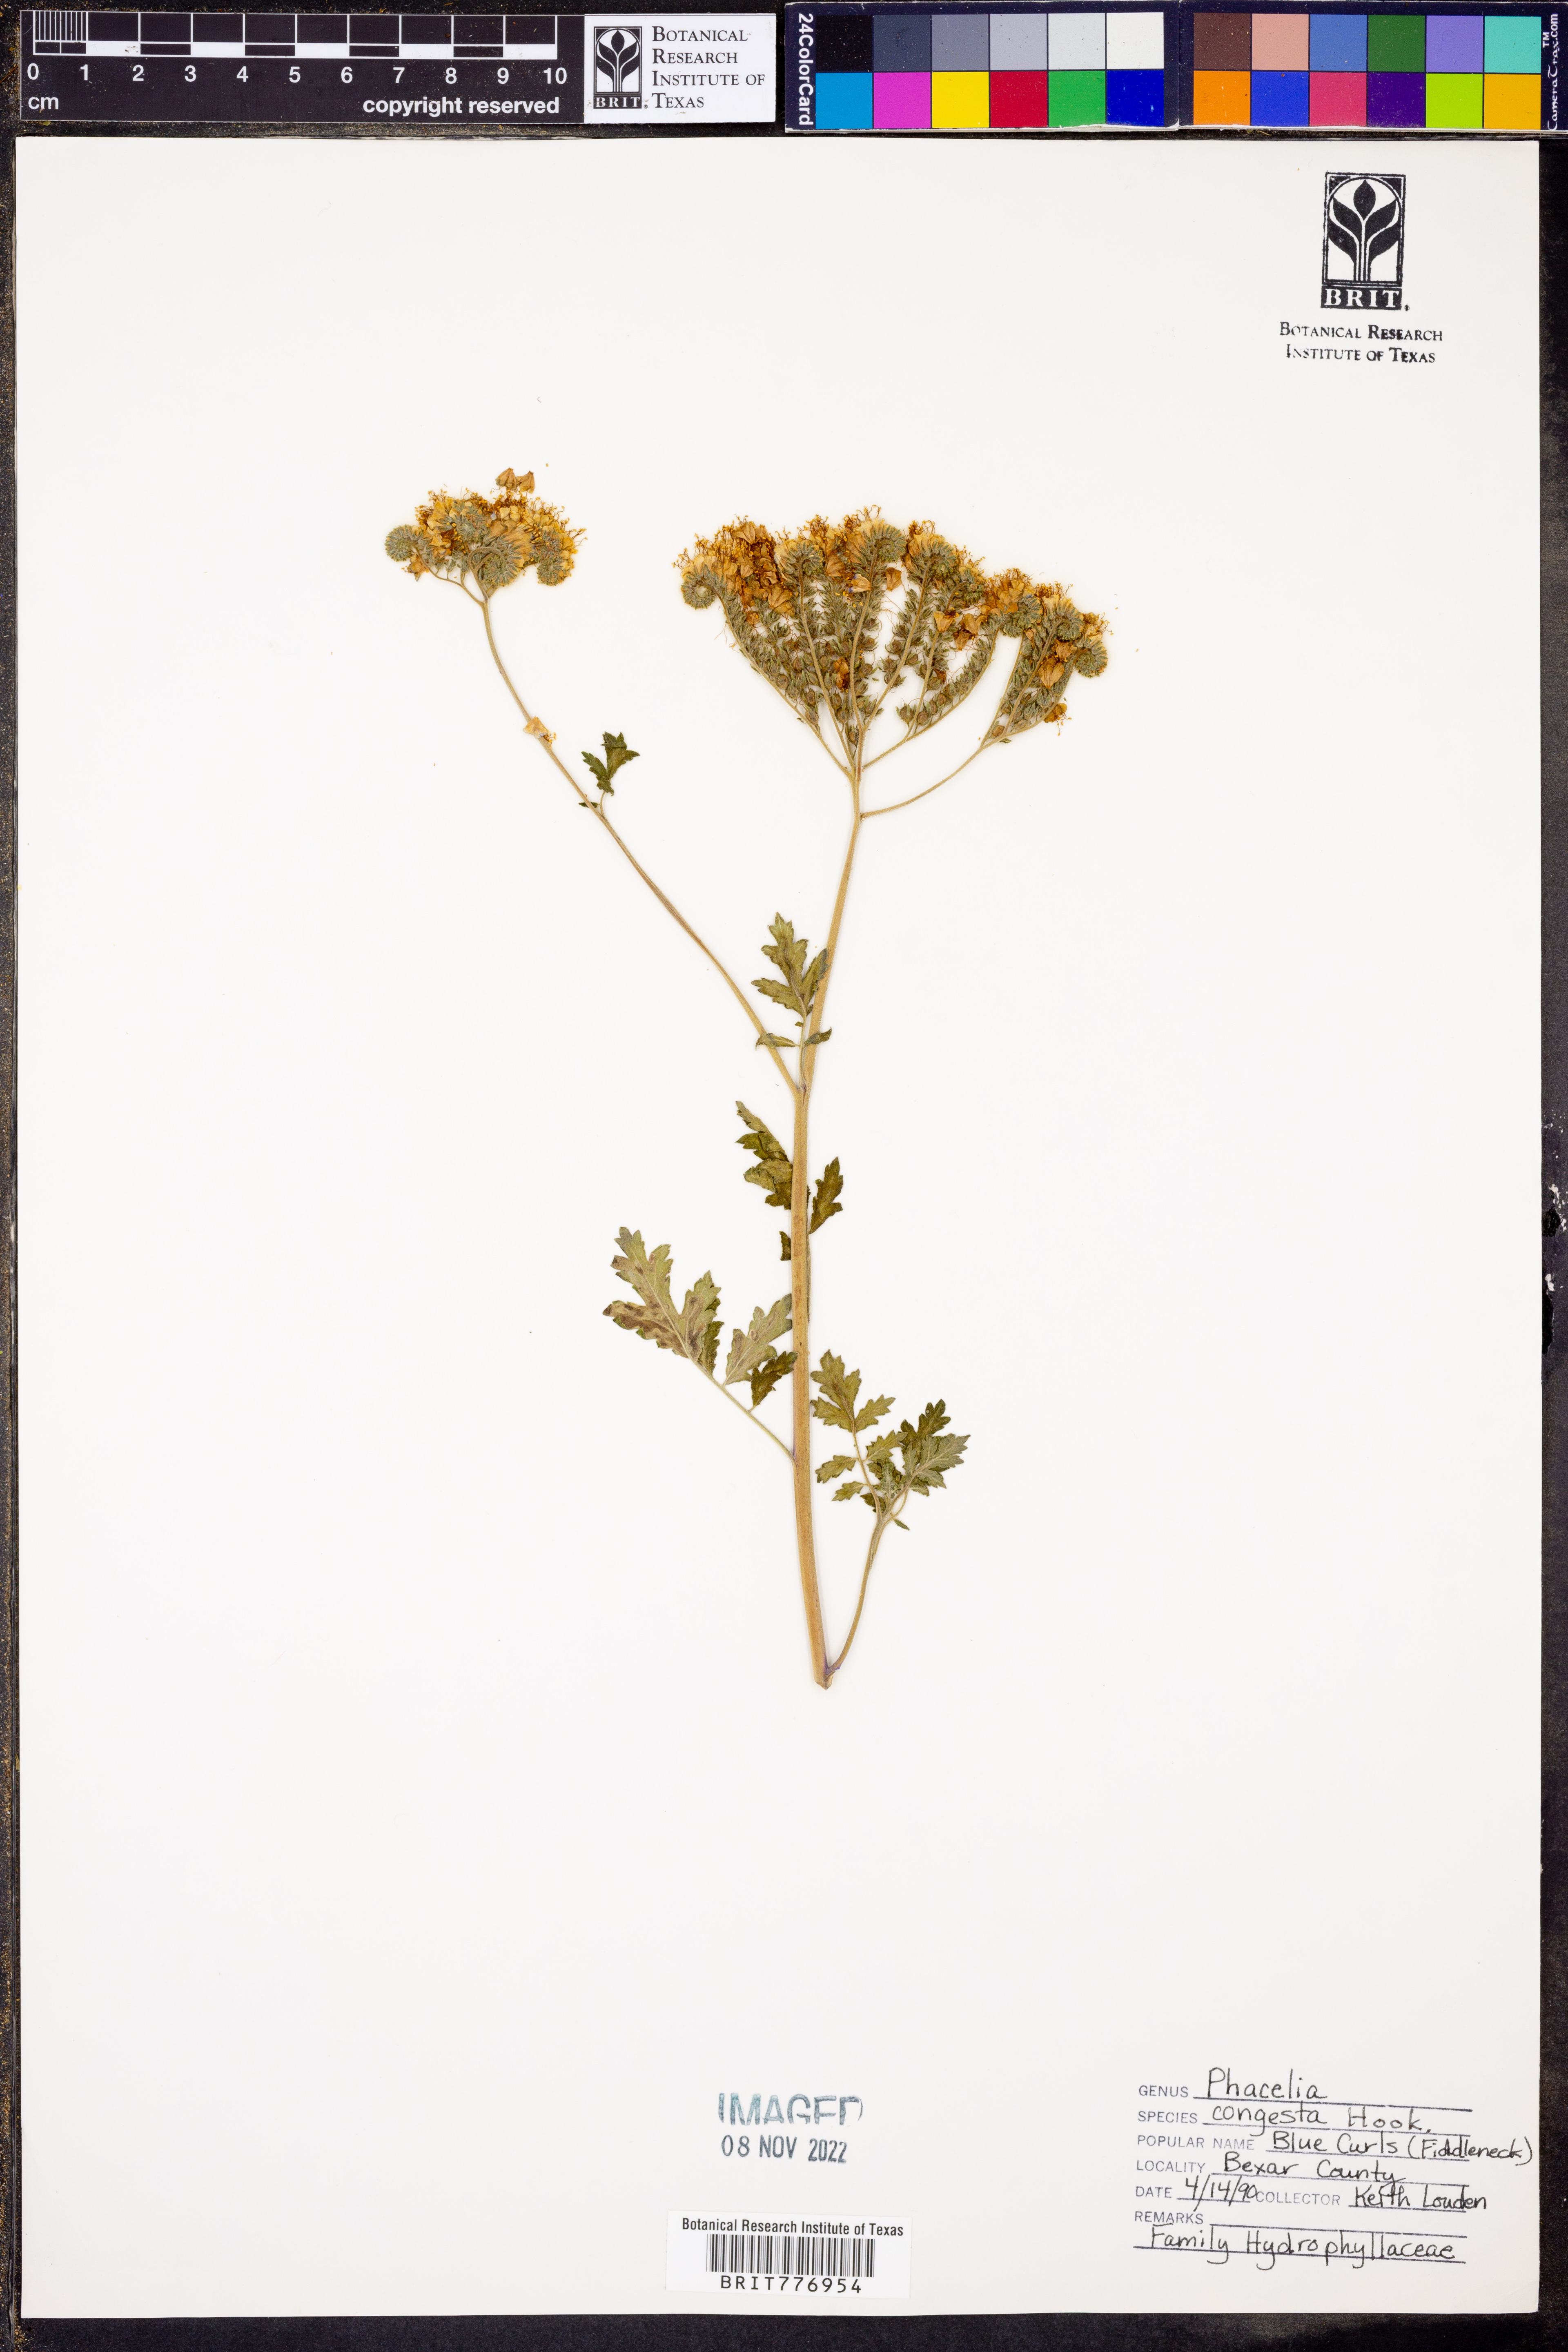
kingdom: Plantae
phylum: Tracheophyta
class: Magnoliopsida
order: Boraginales
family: Hydrophyllaceae
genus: Phacelia
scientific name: Phacelia congesta
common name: Blue curls
